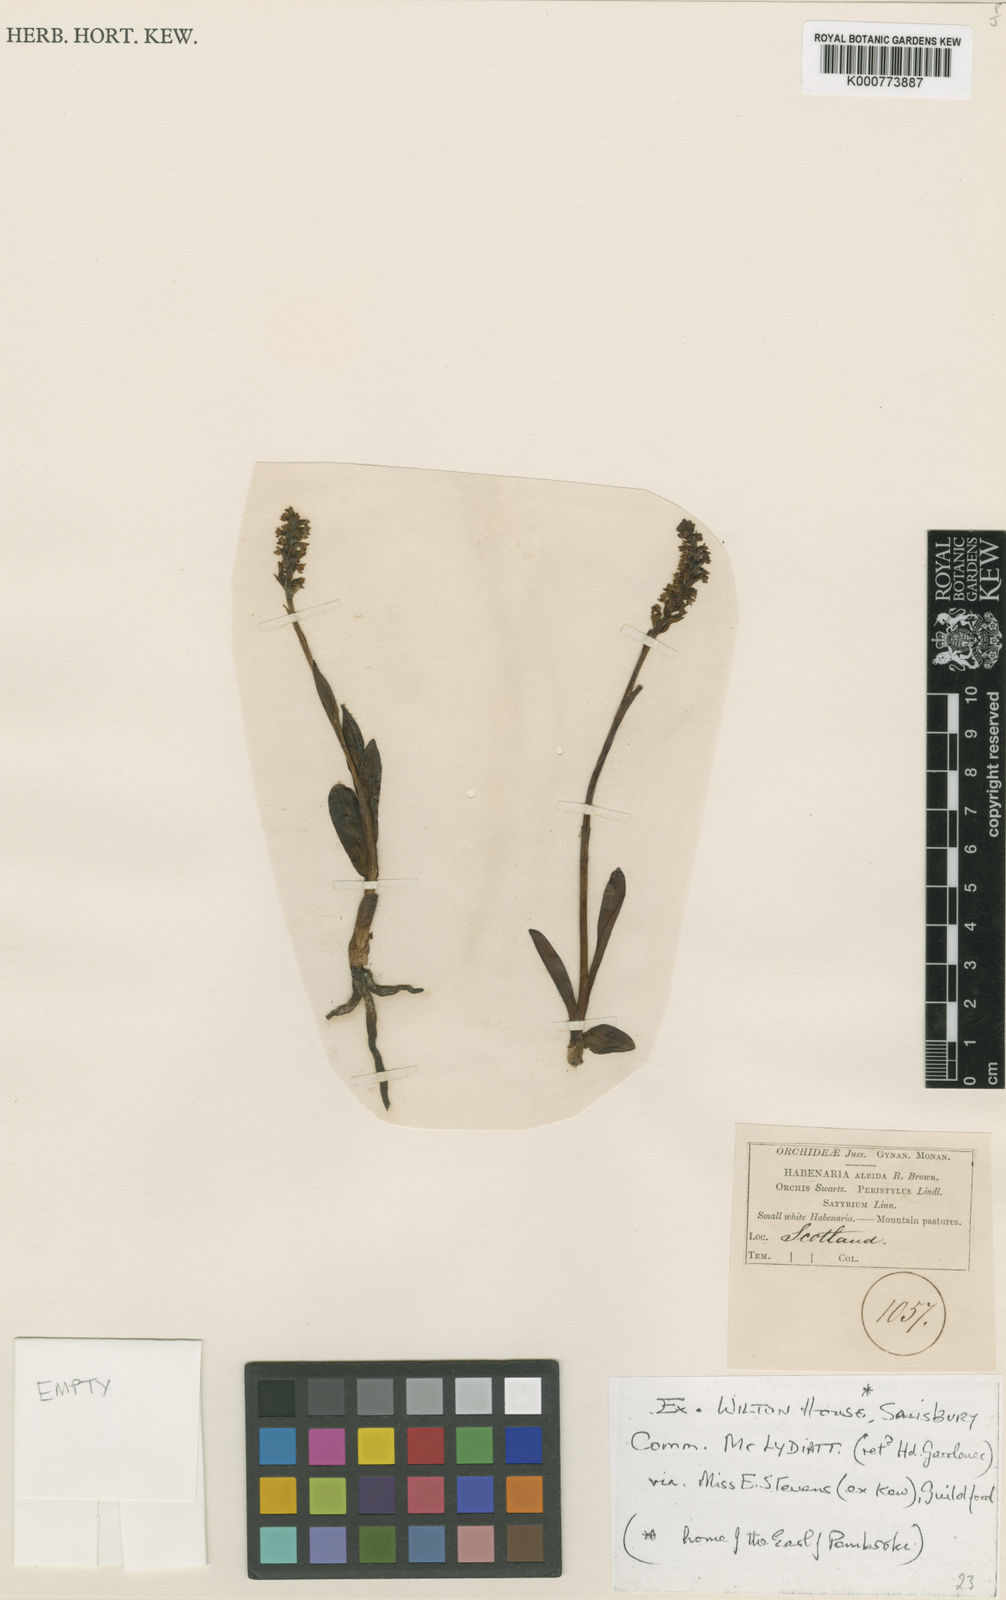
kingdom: Plantae
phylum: Tracheophyta
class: Liliopsida
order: Asparagales
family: Orchidaceae
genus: Pseudorchis
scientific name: Pseudorchis
